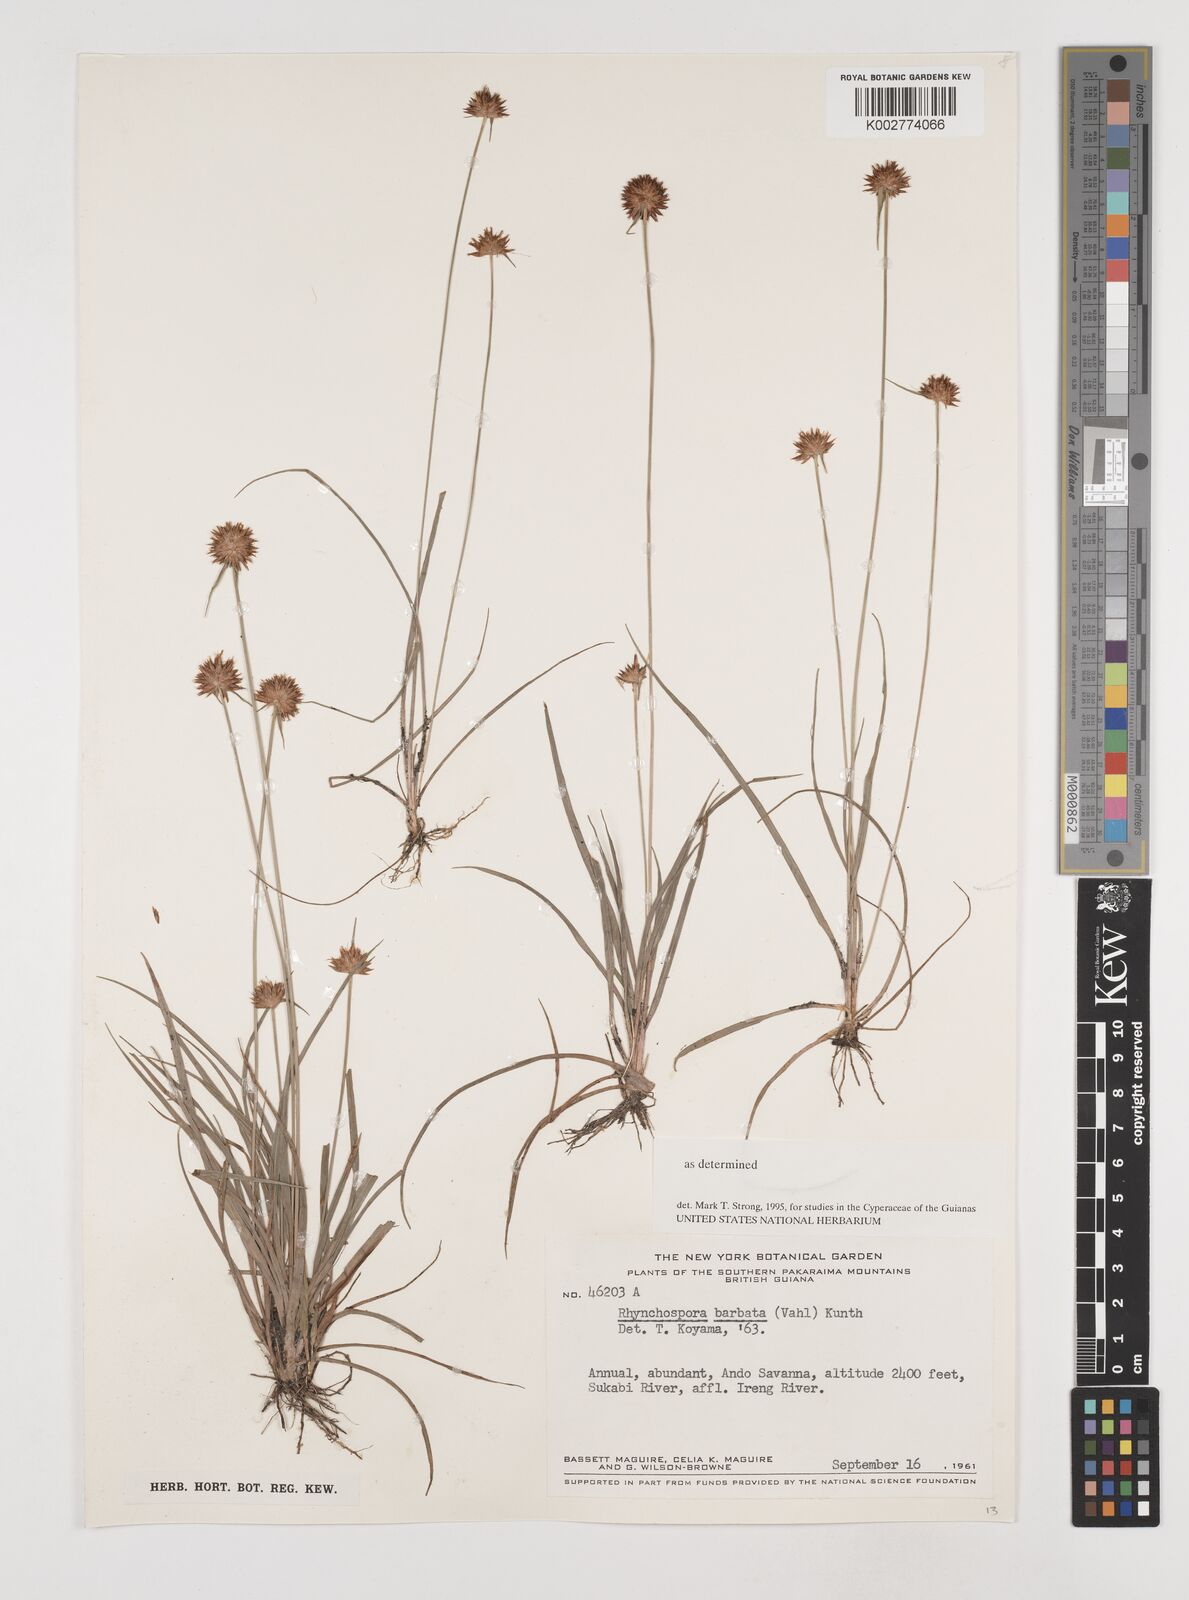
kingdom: Plantae
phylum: Tracheophyta
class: Liliopsida
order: Poales
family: Cyperaceae
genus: Rhynchospora
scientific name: Rhynchospora barbata
